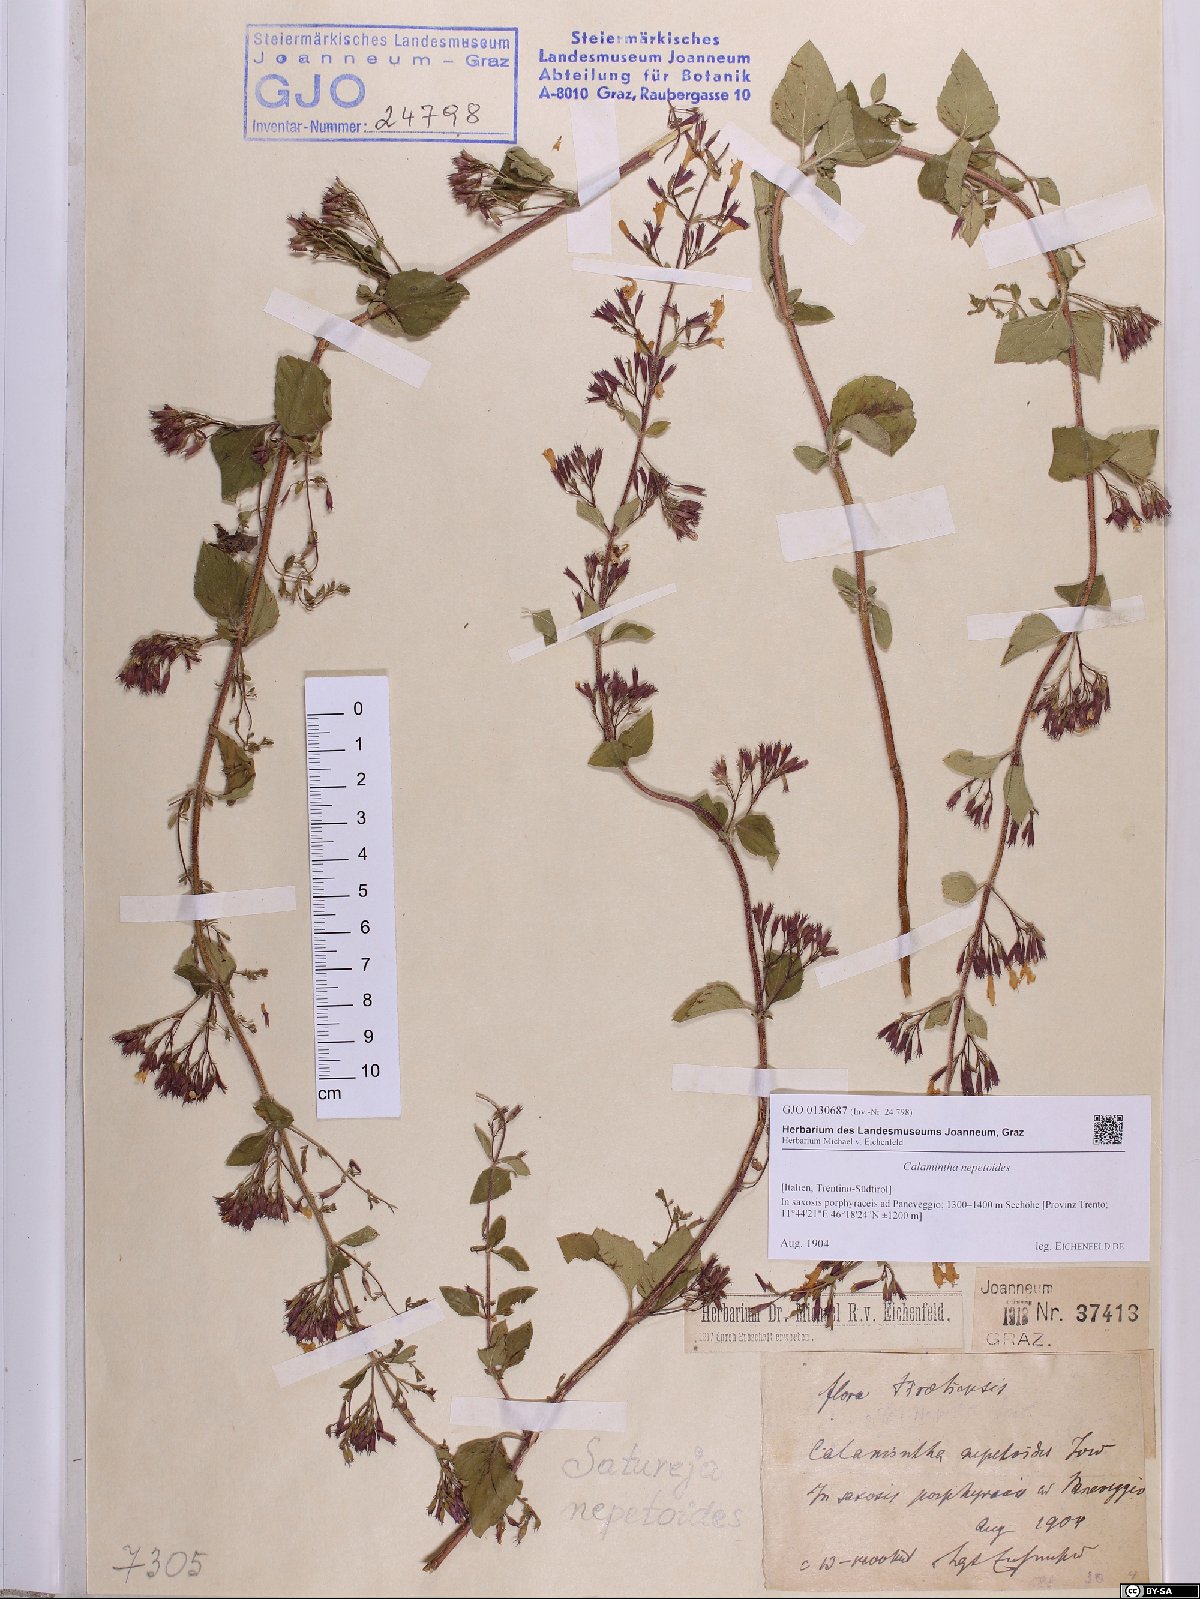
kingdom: Plantae
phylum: Tracheophyta
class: Magnoliopsida
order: Lamiales
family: Lamiaceae
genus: Clinopodium
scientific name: Clinopodium nepeta
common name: Lesser calamint
